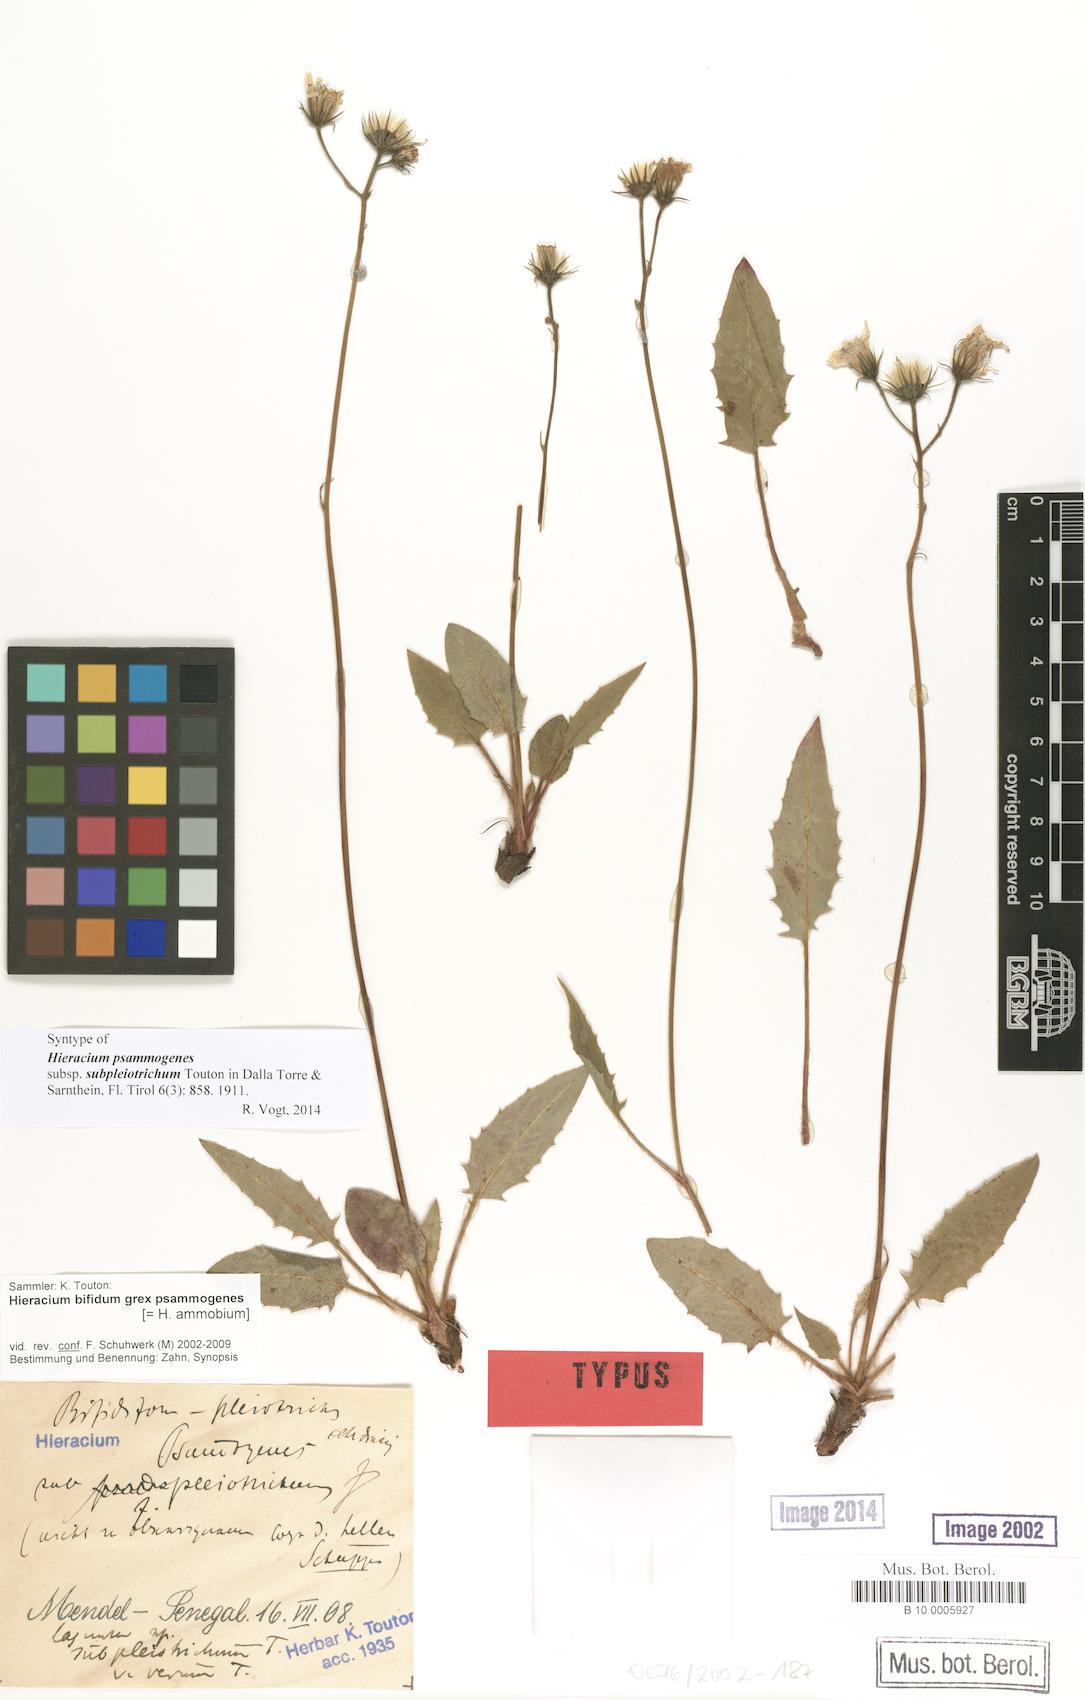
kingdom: Plantae
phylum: Tracheophyta
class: Magnoliopsida
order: Asterales
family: Asteraceae
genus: Hieracium
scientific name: Hieracium bifidum
